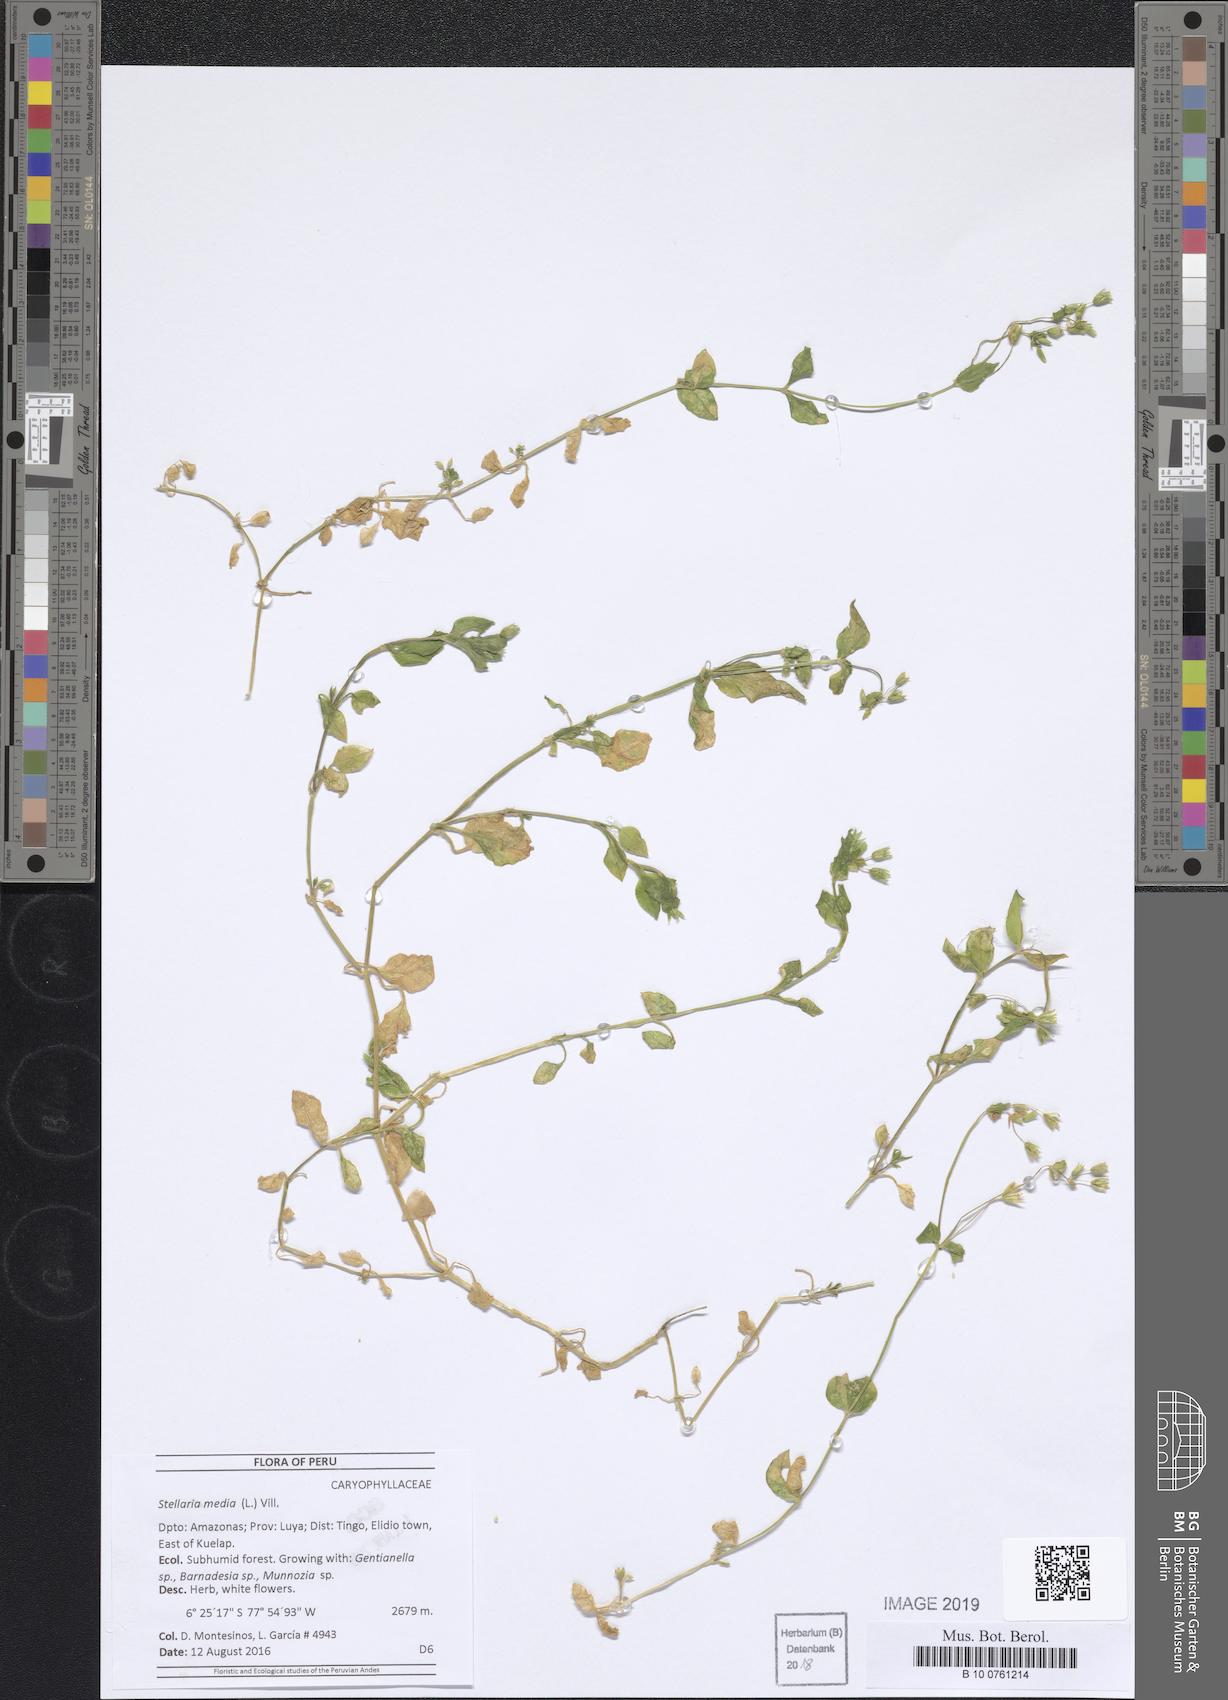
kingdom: Plantae
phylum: Tracheophyta
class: Magnoliopsida
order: Caryophyllales
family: Caryophyllaceae
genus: Stellaria
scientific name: Stellaria media
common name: Common chickweed
